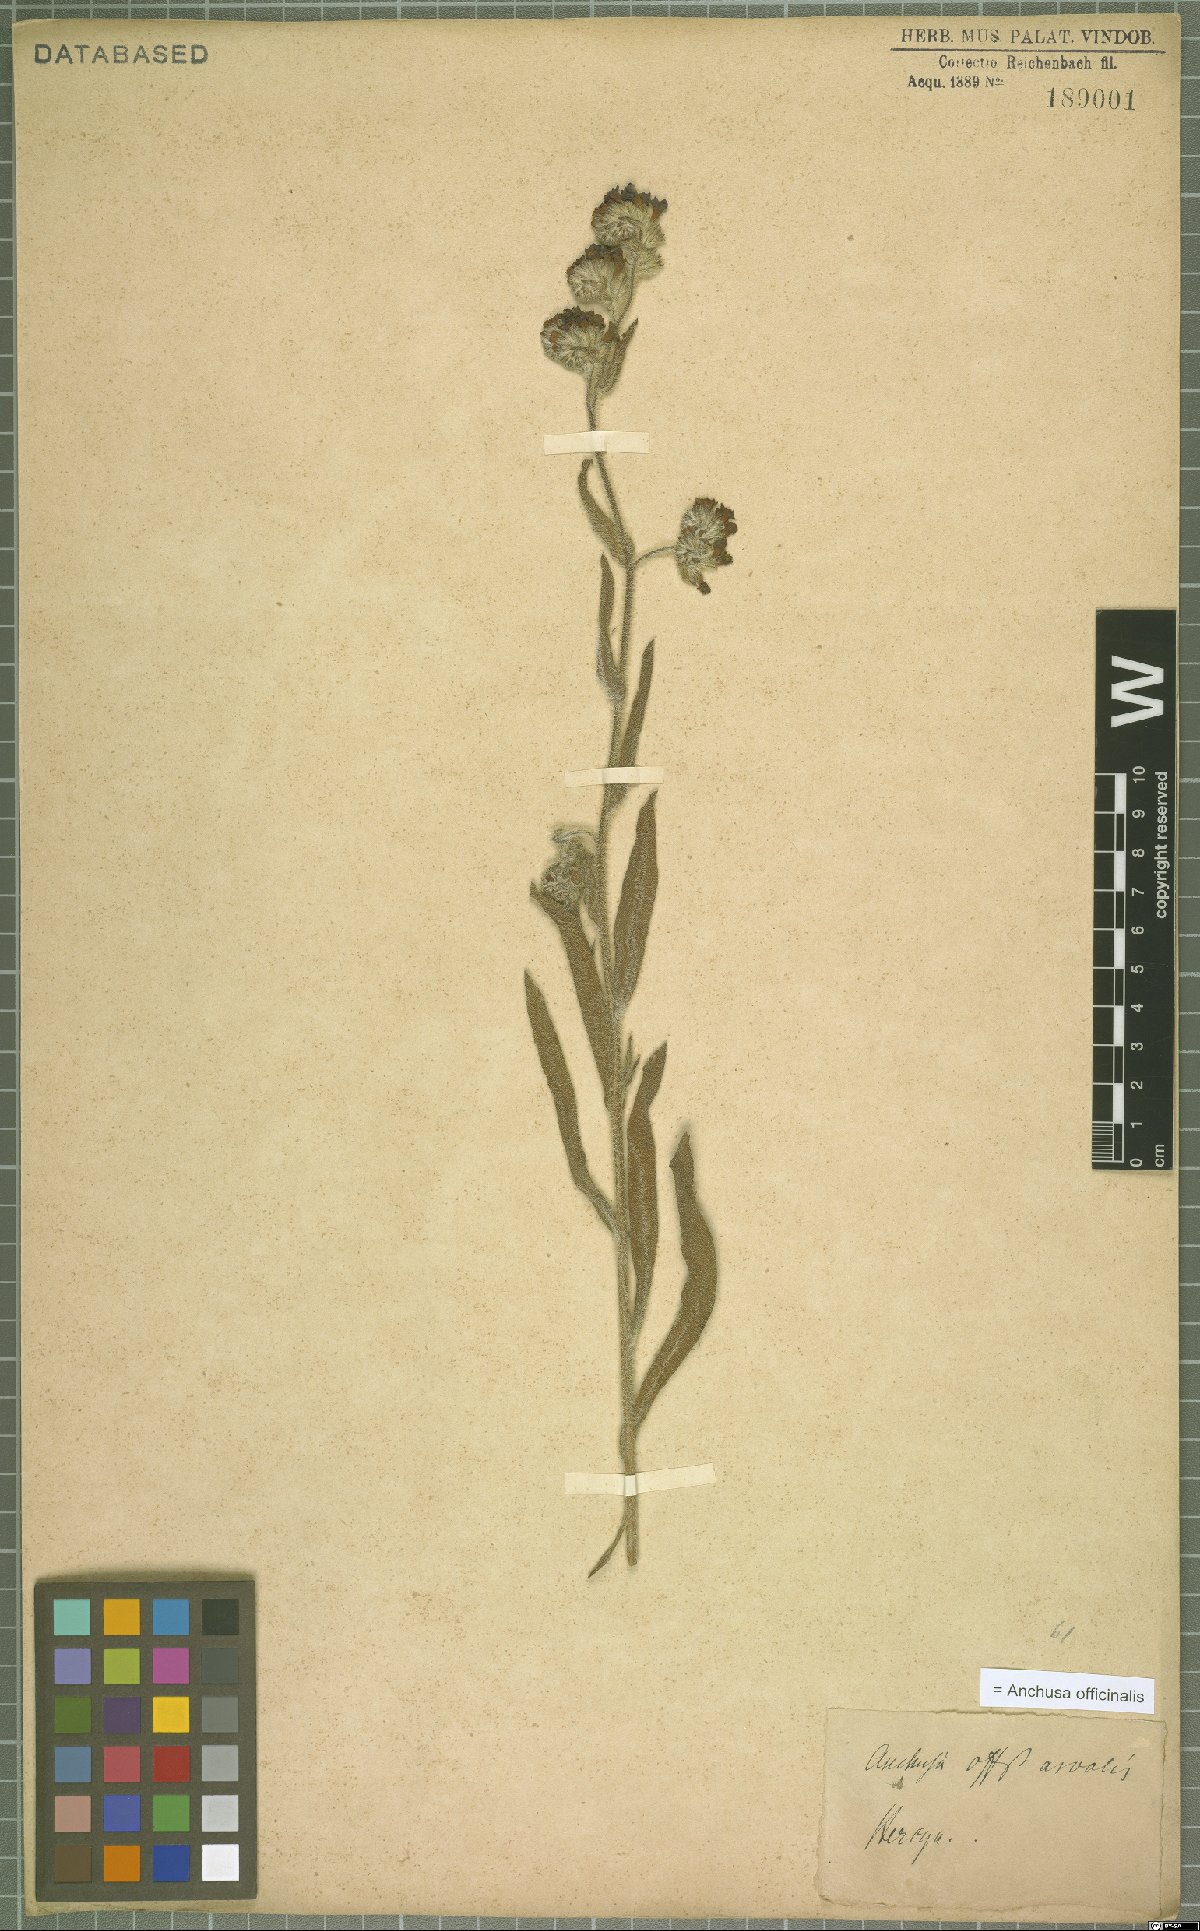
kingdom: Plantae
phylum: Tracheophyta
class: Magnoliopsida
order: Boraginales
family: Boraginaceae
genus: Anchusa
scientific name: Anchusa officinalis
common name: Alkanet
